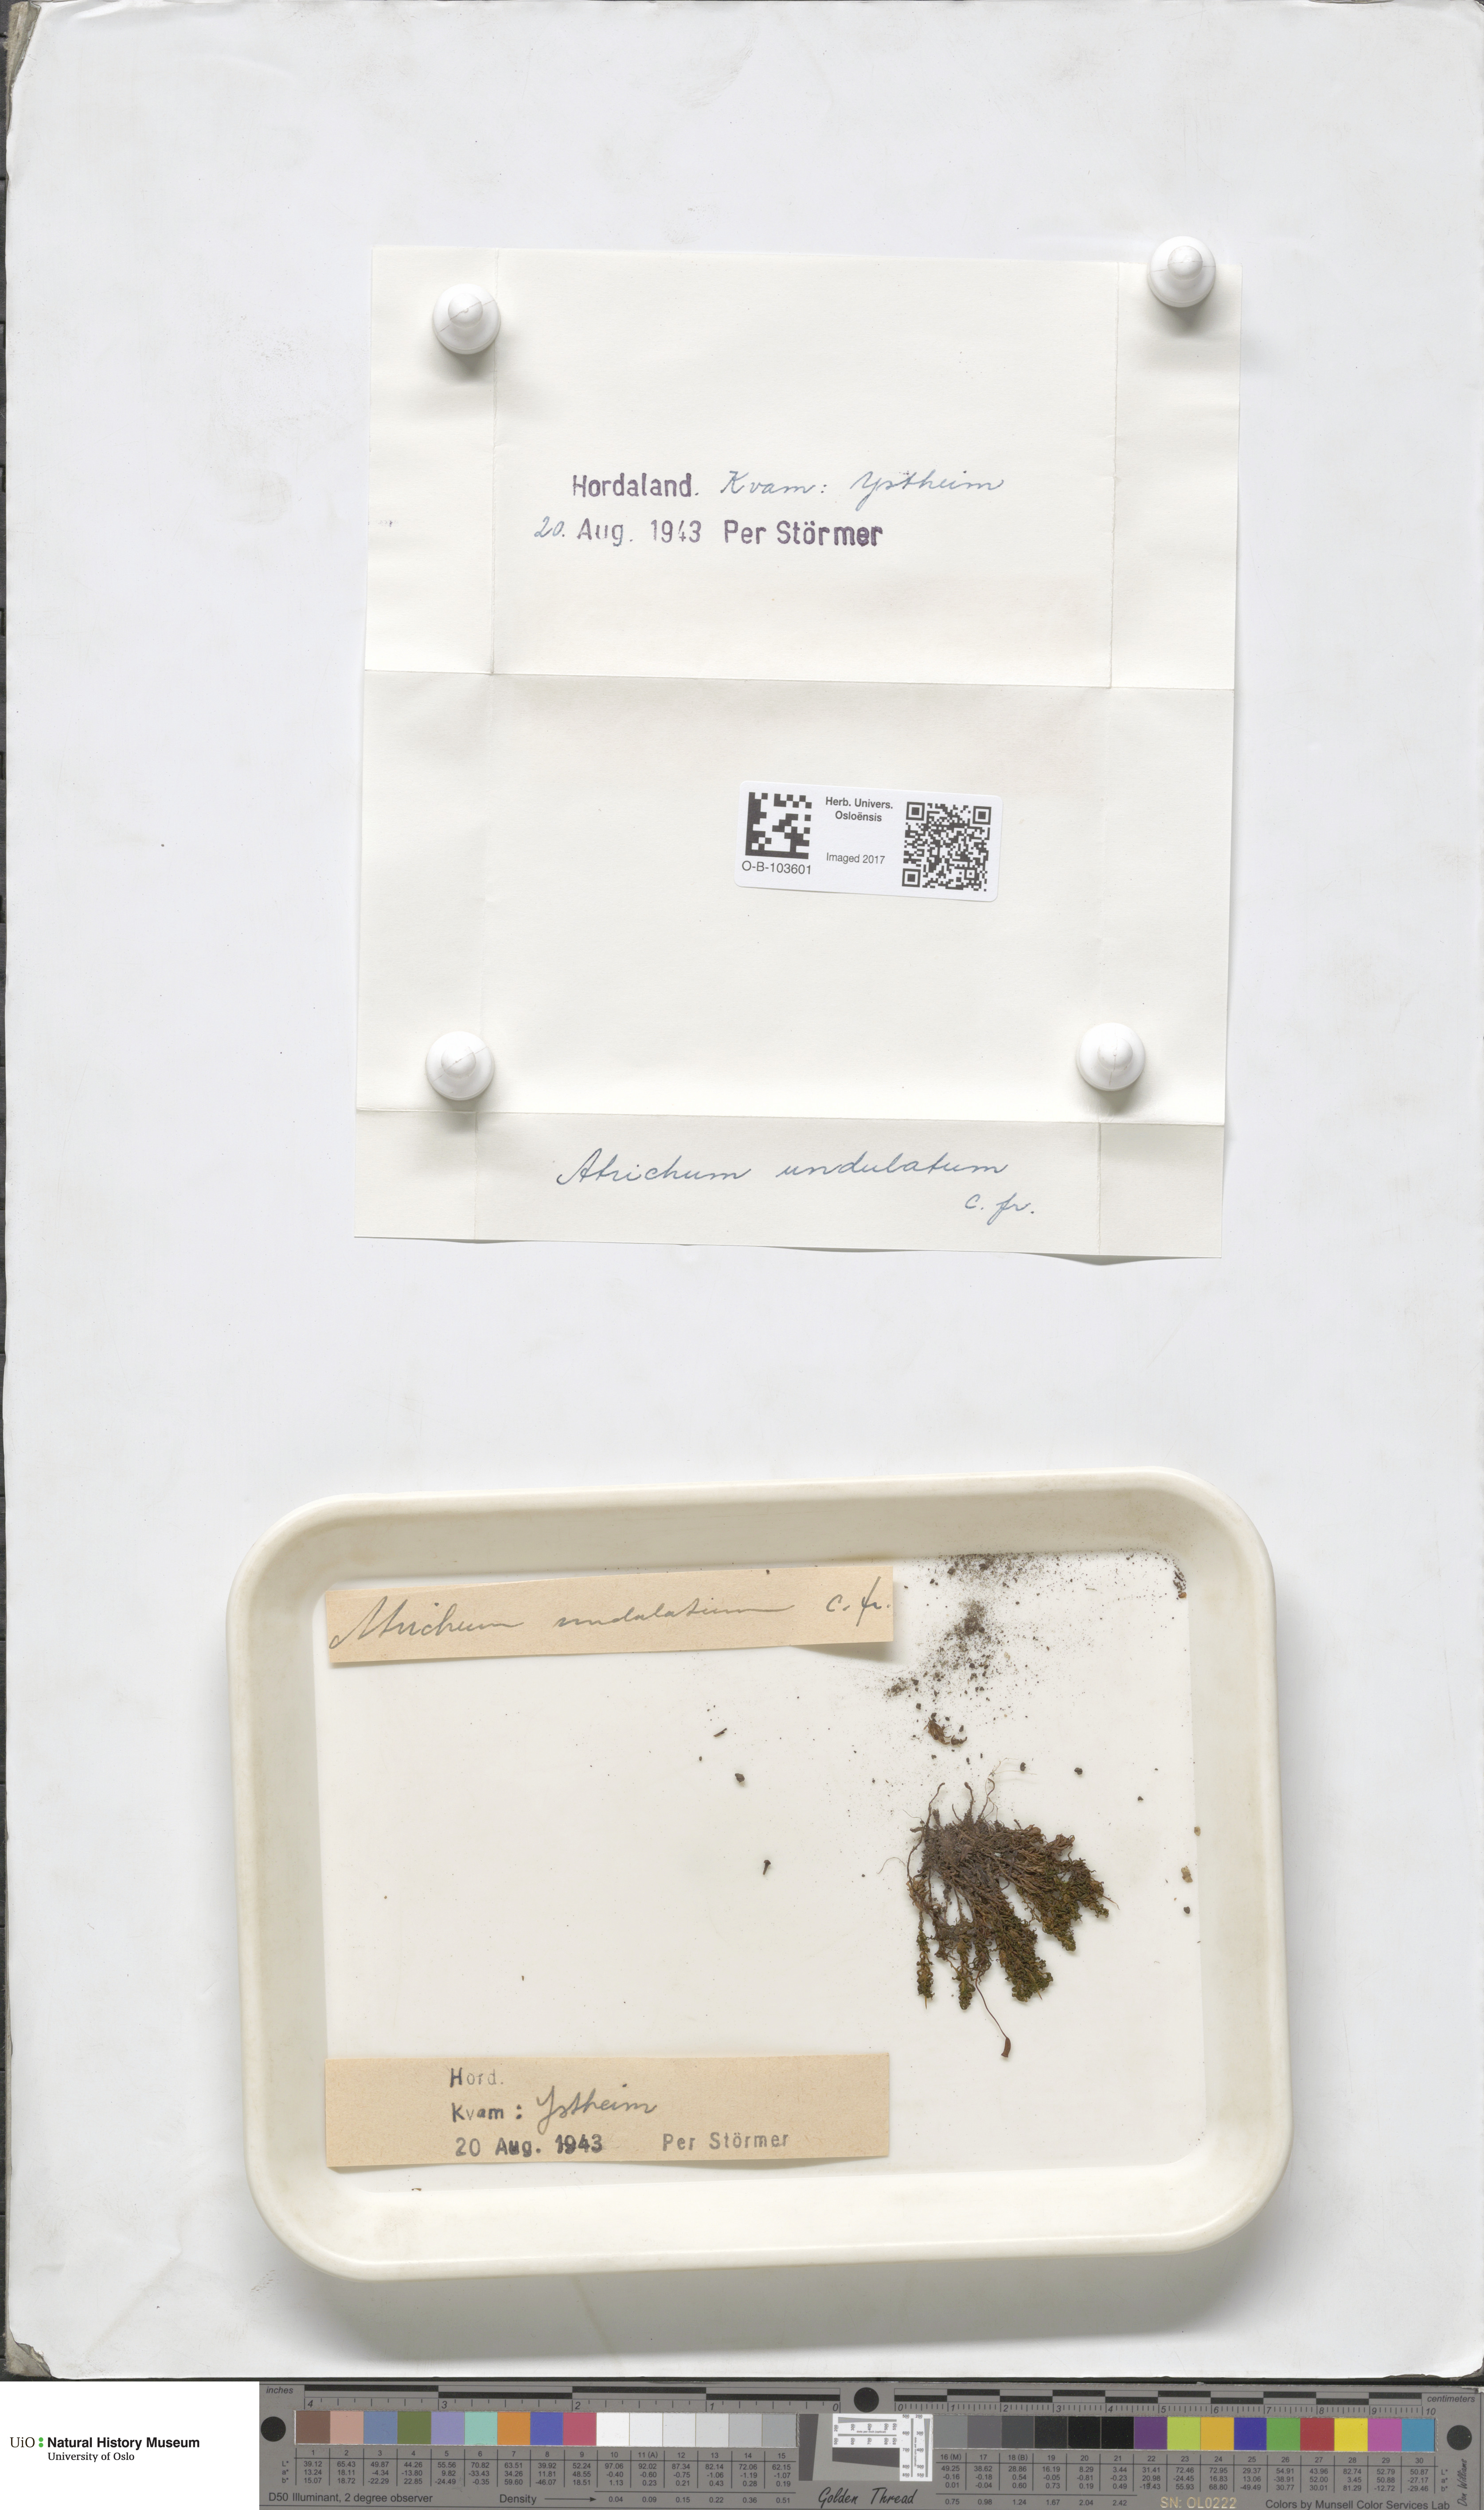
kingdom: Plantae
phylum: Bryophyta
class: Polytrichopsida
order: Polytrichales
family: Polytrichaceae
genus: Atrichum
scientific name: Atrichum undulatum
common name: Common smoothcap
